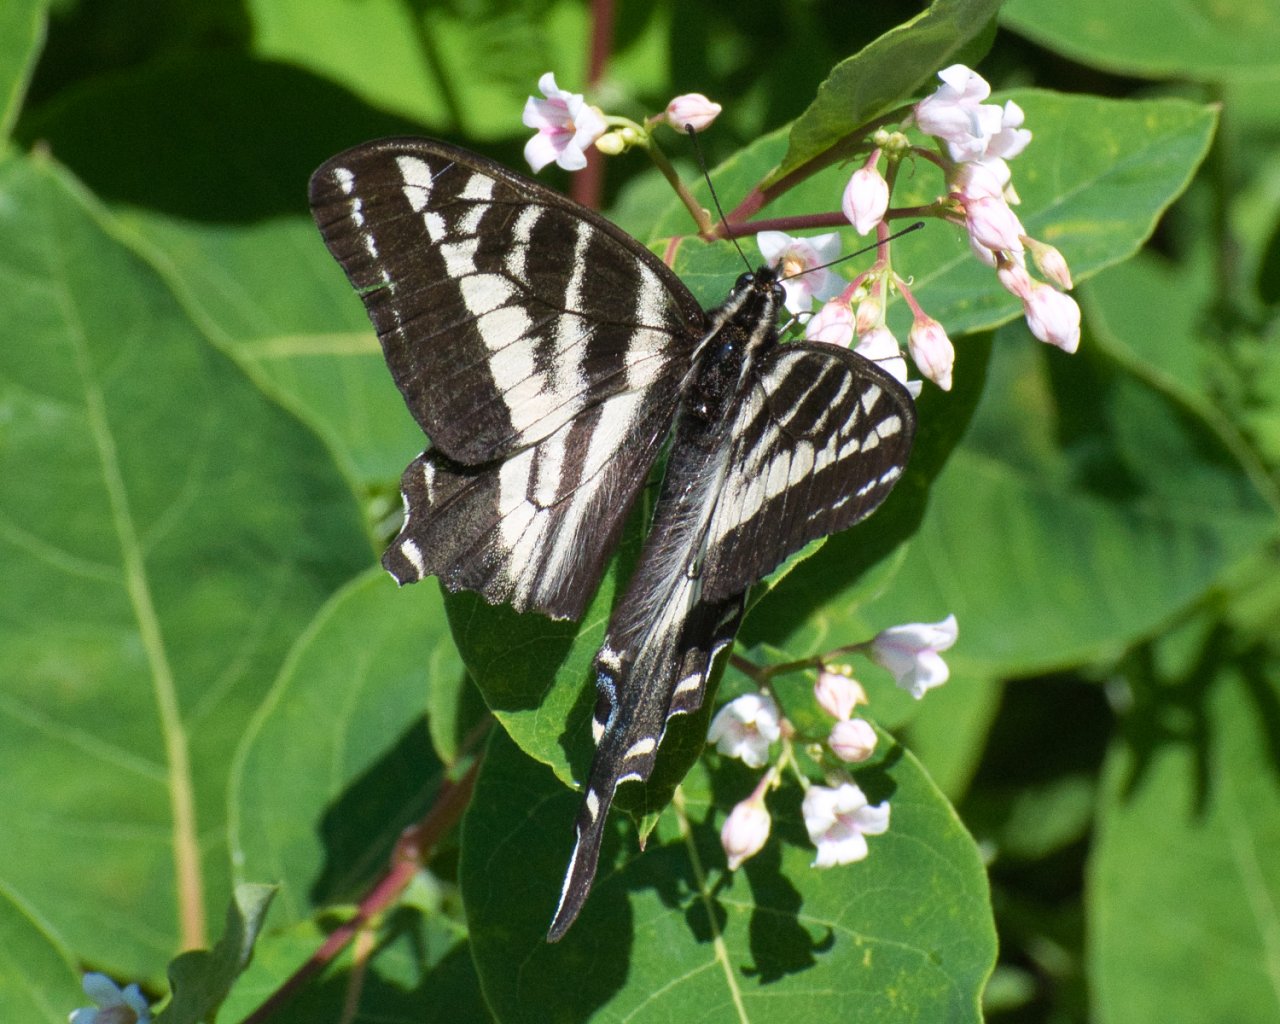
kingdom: Animalia
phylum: Arthropoda
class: Insecta
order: Lepidoptera
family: Papilionidae
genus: Pterourus
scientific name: Pterourus eurymedon
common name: Pale Swallowtail
